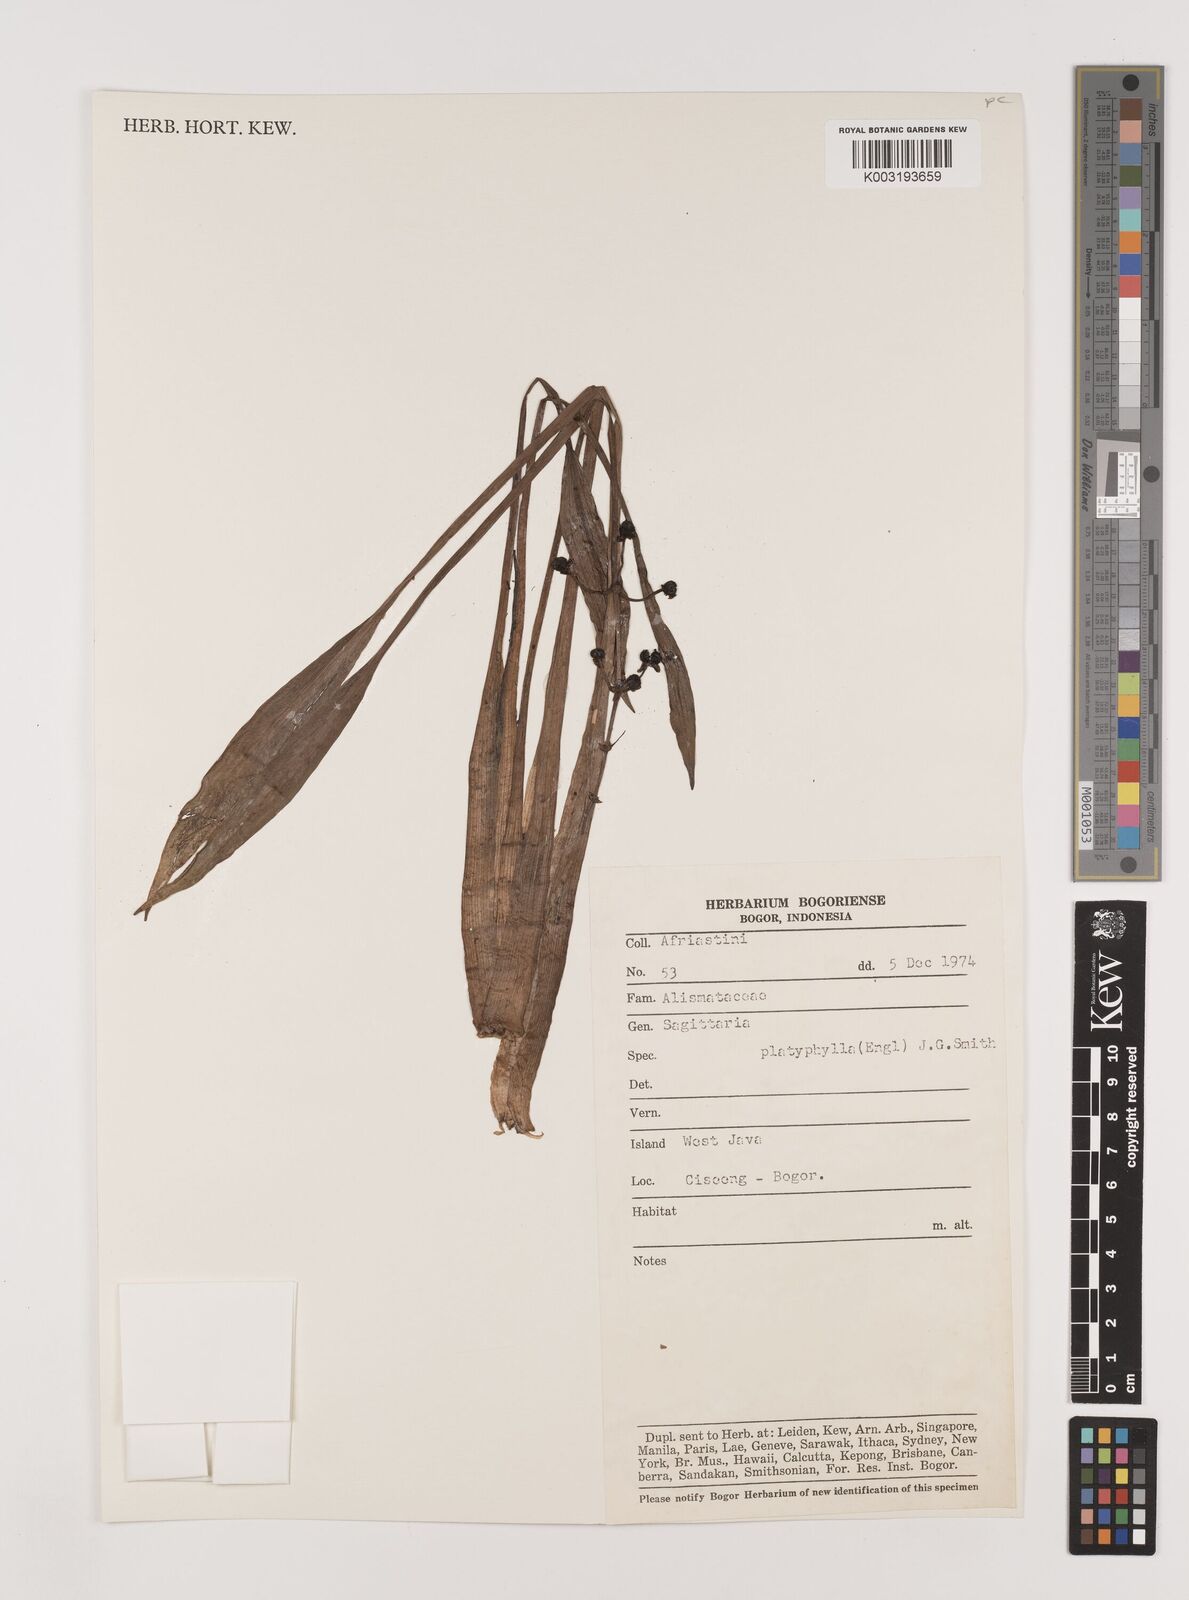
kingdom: Plantae
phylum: Tracheophyta
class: Liliopsida
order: Alismatales
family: Alismataceae
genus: Sagittaria
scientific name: Sagittaria platyphylla
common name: Broad-leaf arrowhead
